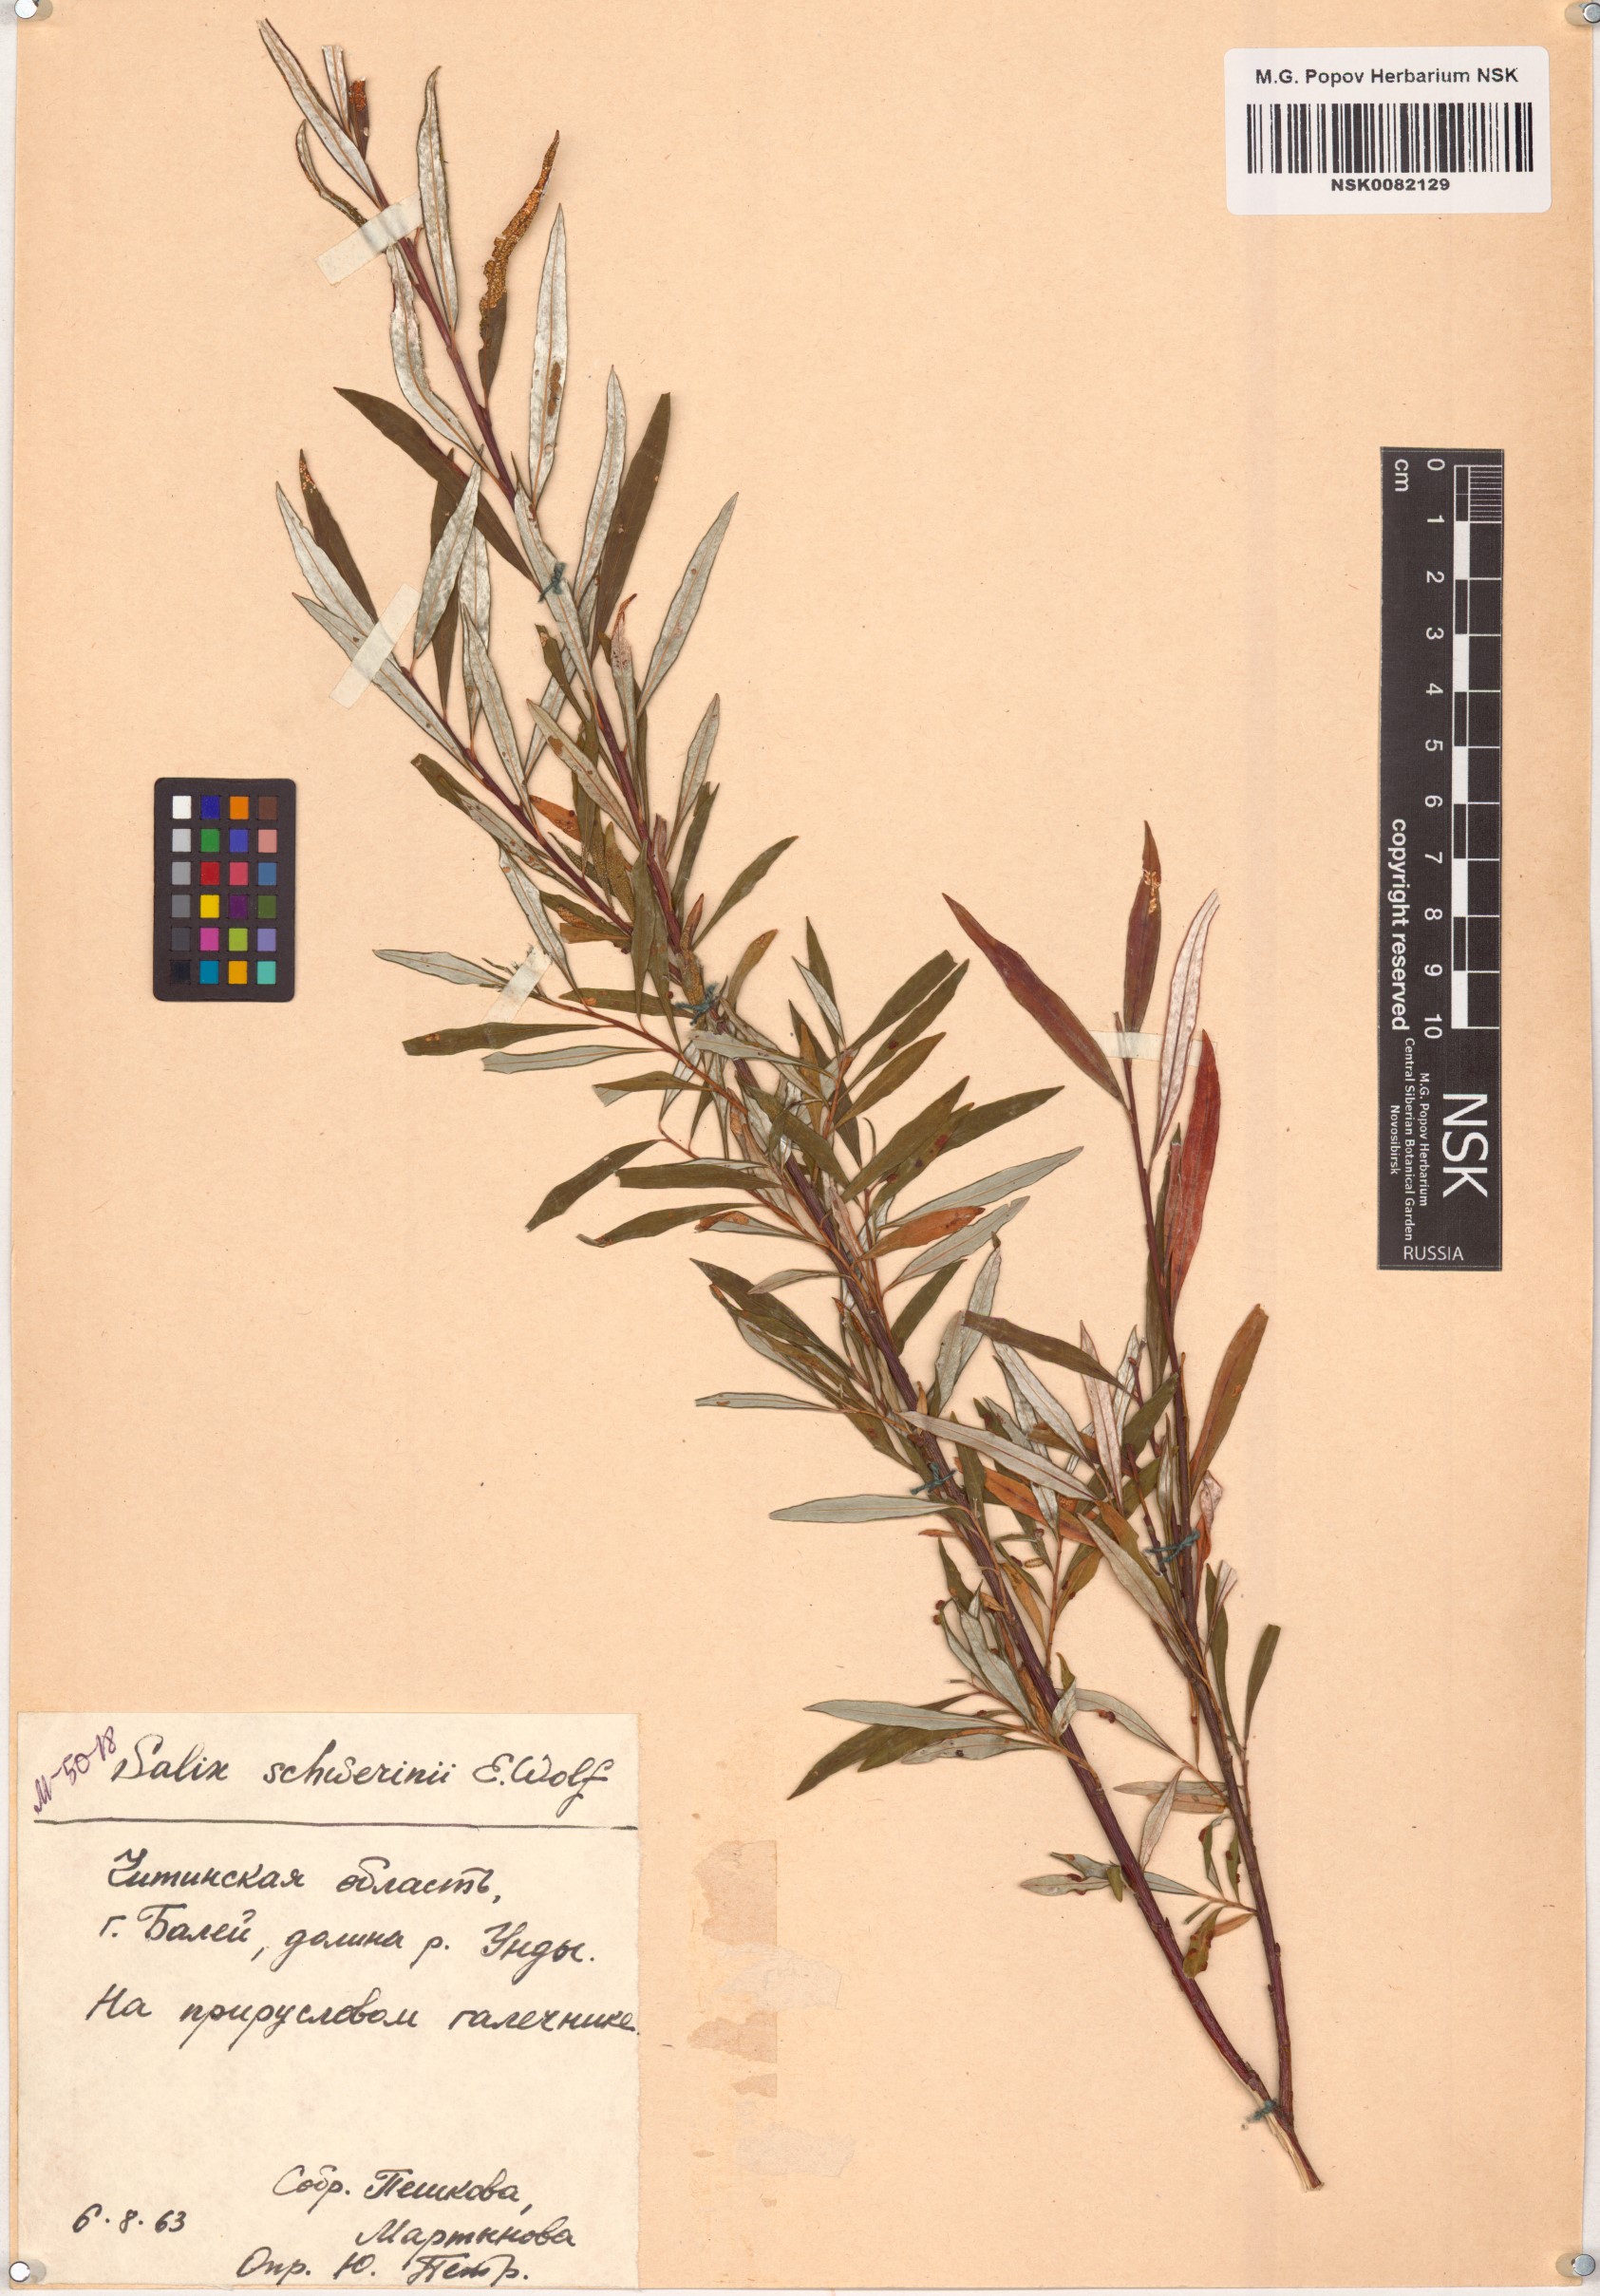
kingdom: Plantae
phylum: Tracheophyta
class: Magnoliopsida
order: Malpighiales
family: Salicaceae
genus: Salix
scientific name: Salix schwerinii
